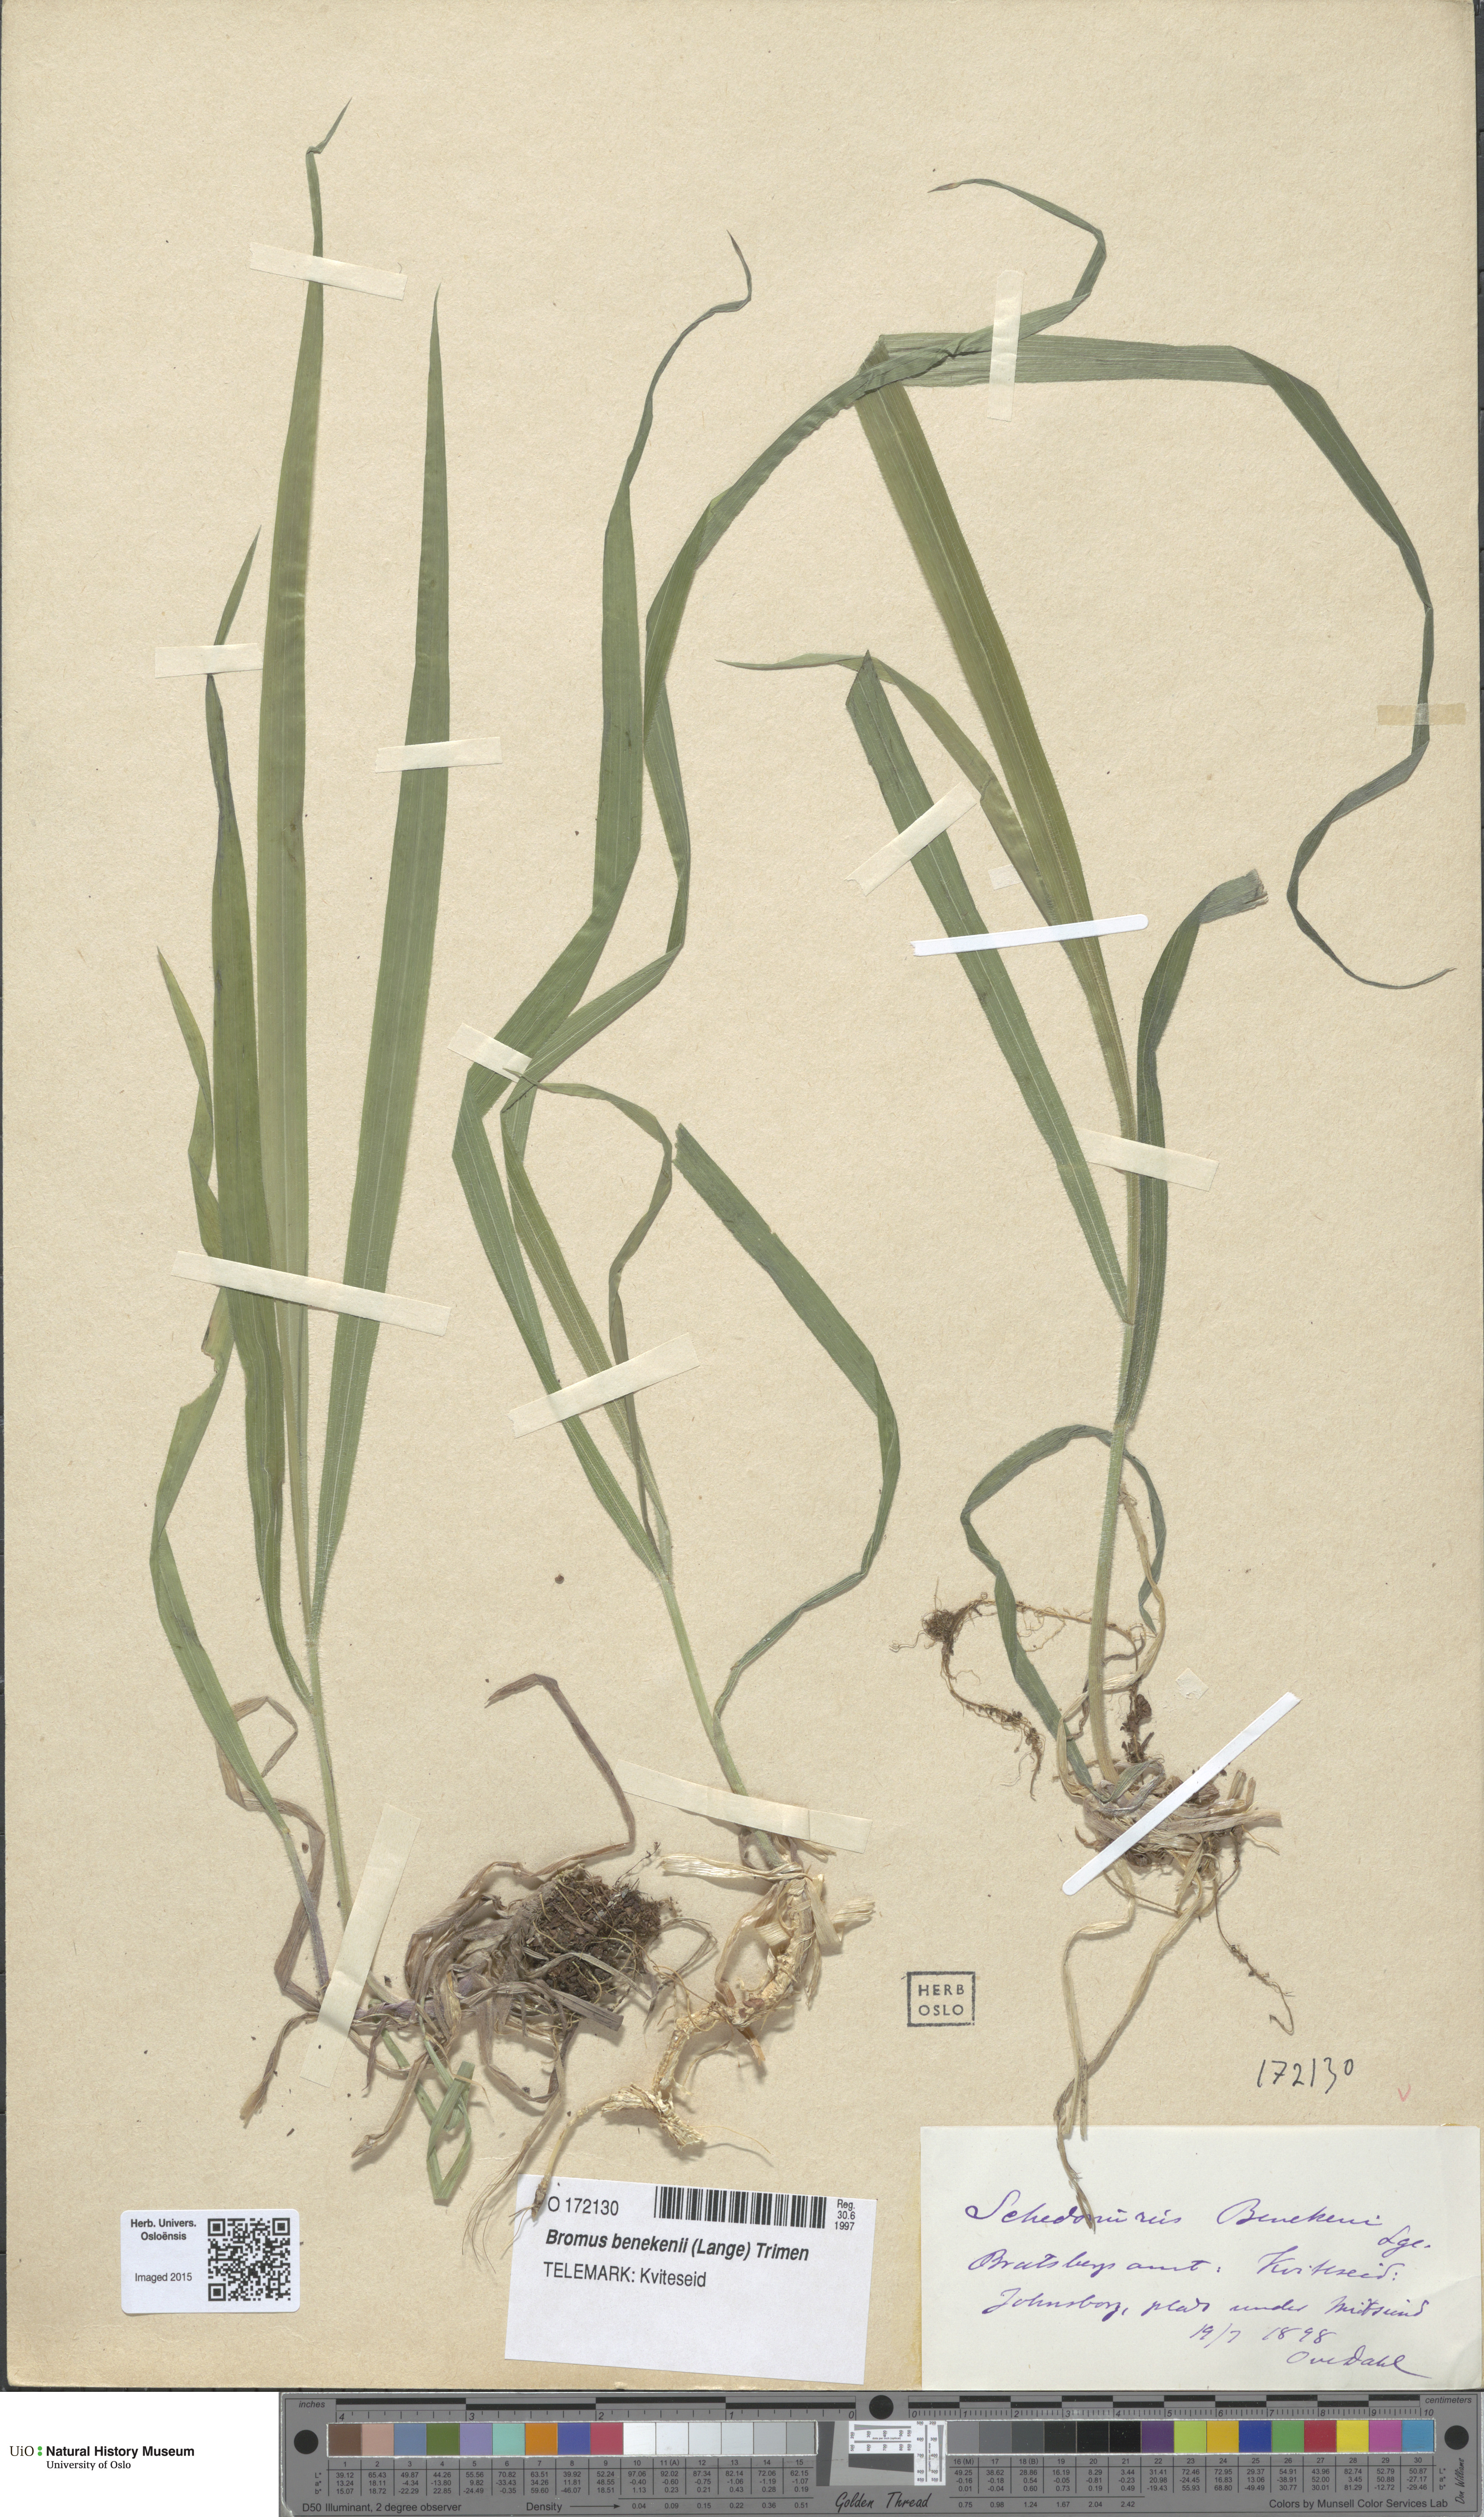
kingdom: Plantae
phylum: Tracheophyta
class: Liliopsida
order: Poales
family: Poaceae
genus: Bromus
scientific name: Bromus benekenii
